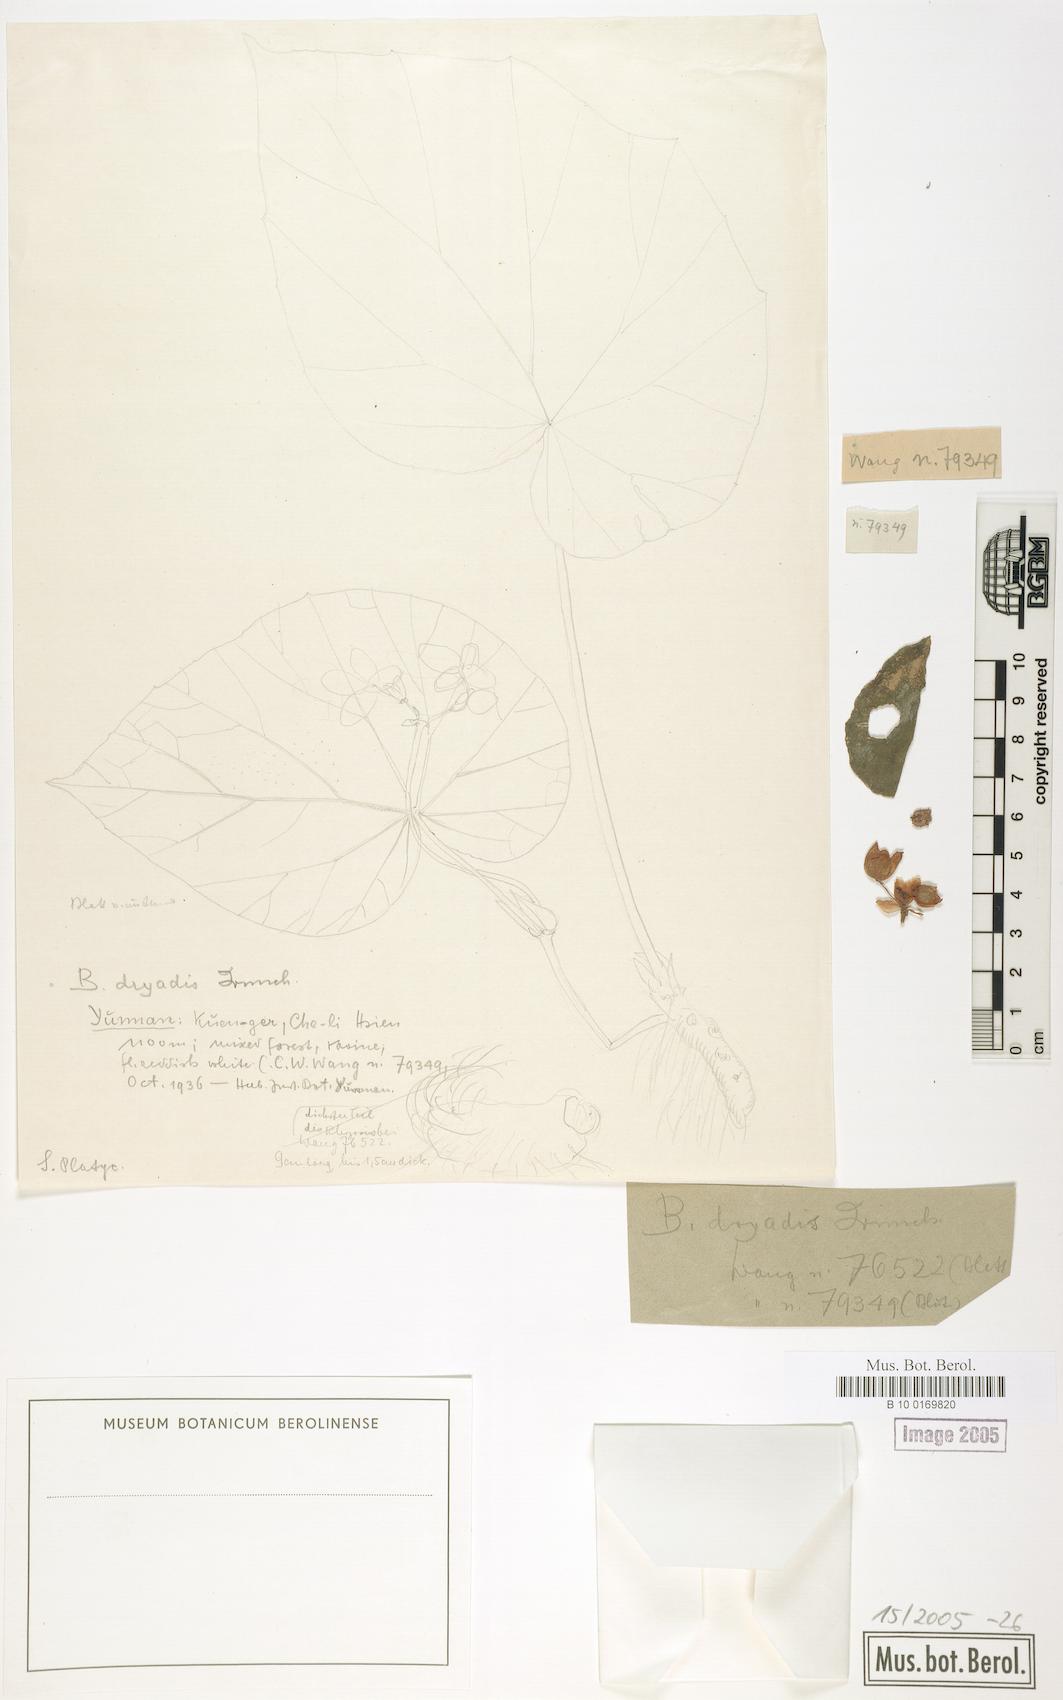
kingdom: Plantae
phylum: Tracheophyta
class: Magnoliopsida
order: Cucurbitales
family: Begoniaceae
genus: Begonia
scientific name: Begonia dryadis
